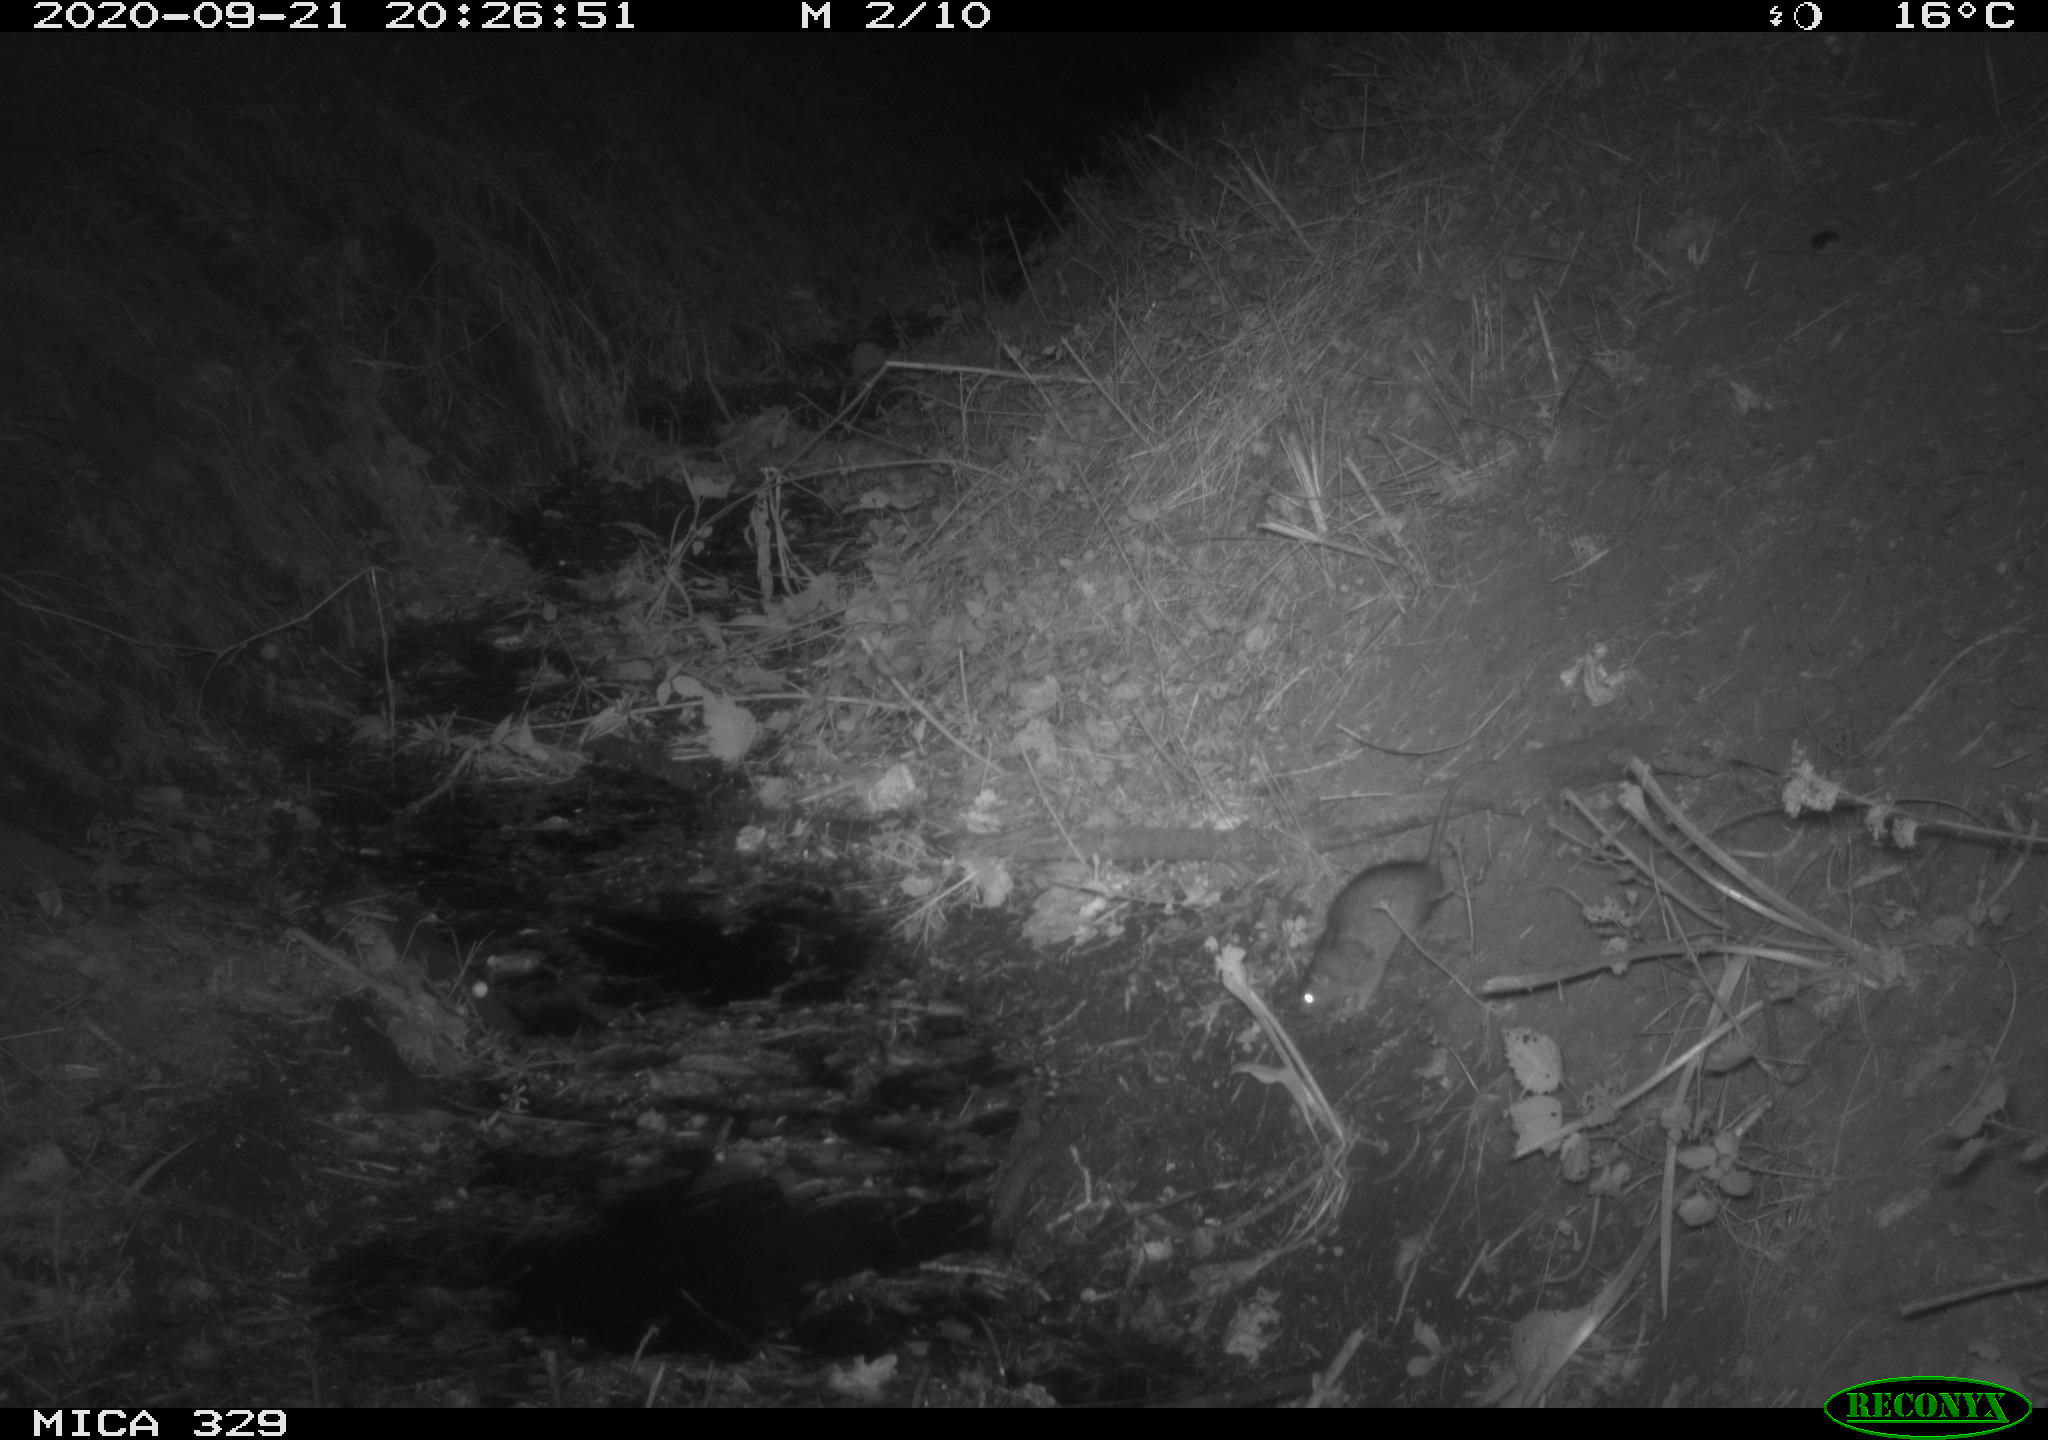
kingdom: Animalia
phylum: Chordata
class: Mammalia
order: Rodentia
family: Muridae
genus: Rattus
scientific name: Rattus norvegicus
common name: Brown rat
